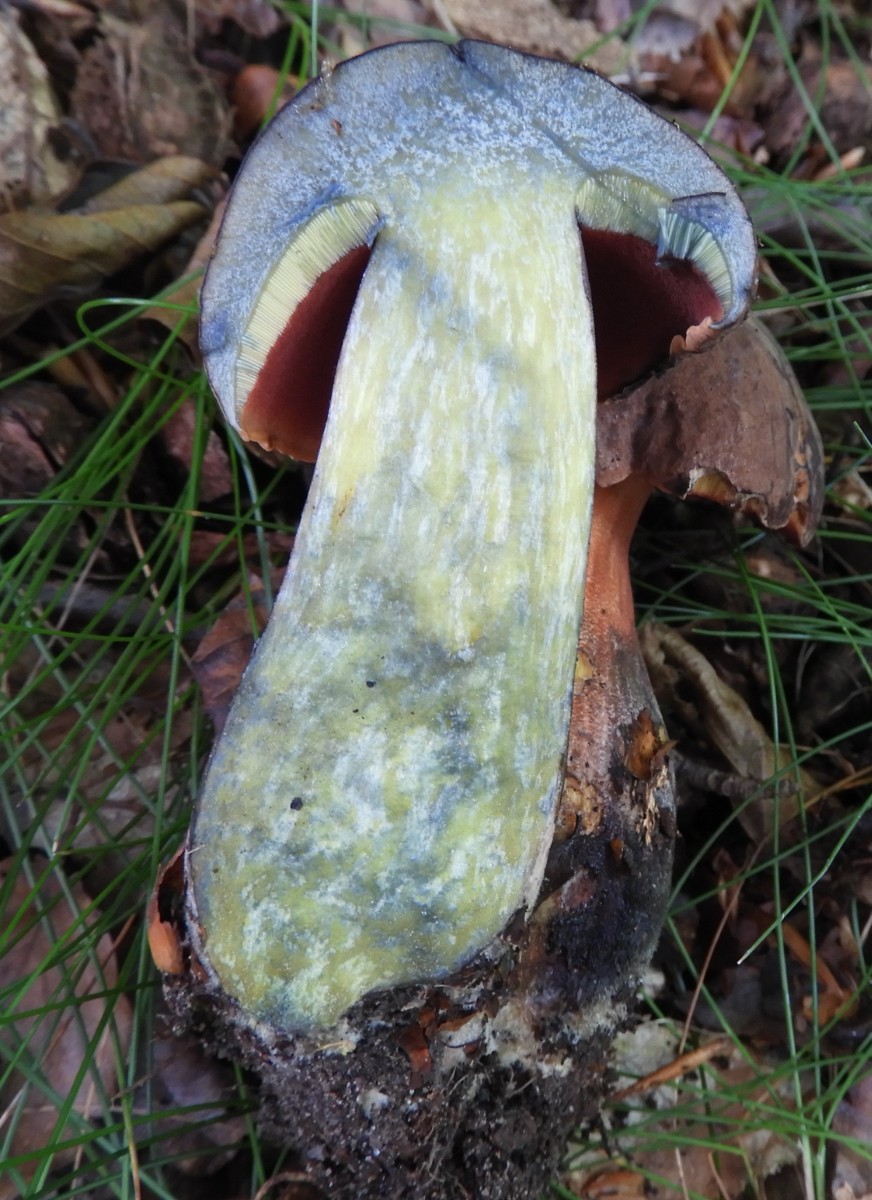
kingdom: Fungi
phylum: Basidiomycota
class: Agaricomycetes
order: Boletales
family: Boletaceae
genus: Neoboletus
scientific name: Neoboletus erythropus
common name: punktstokket indigorørhat
